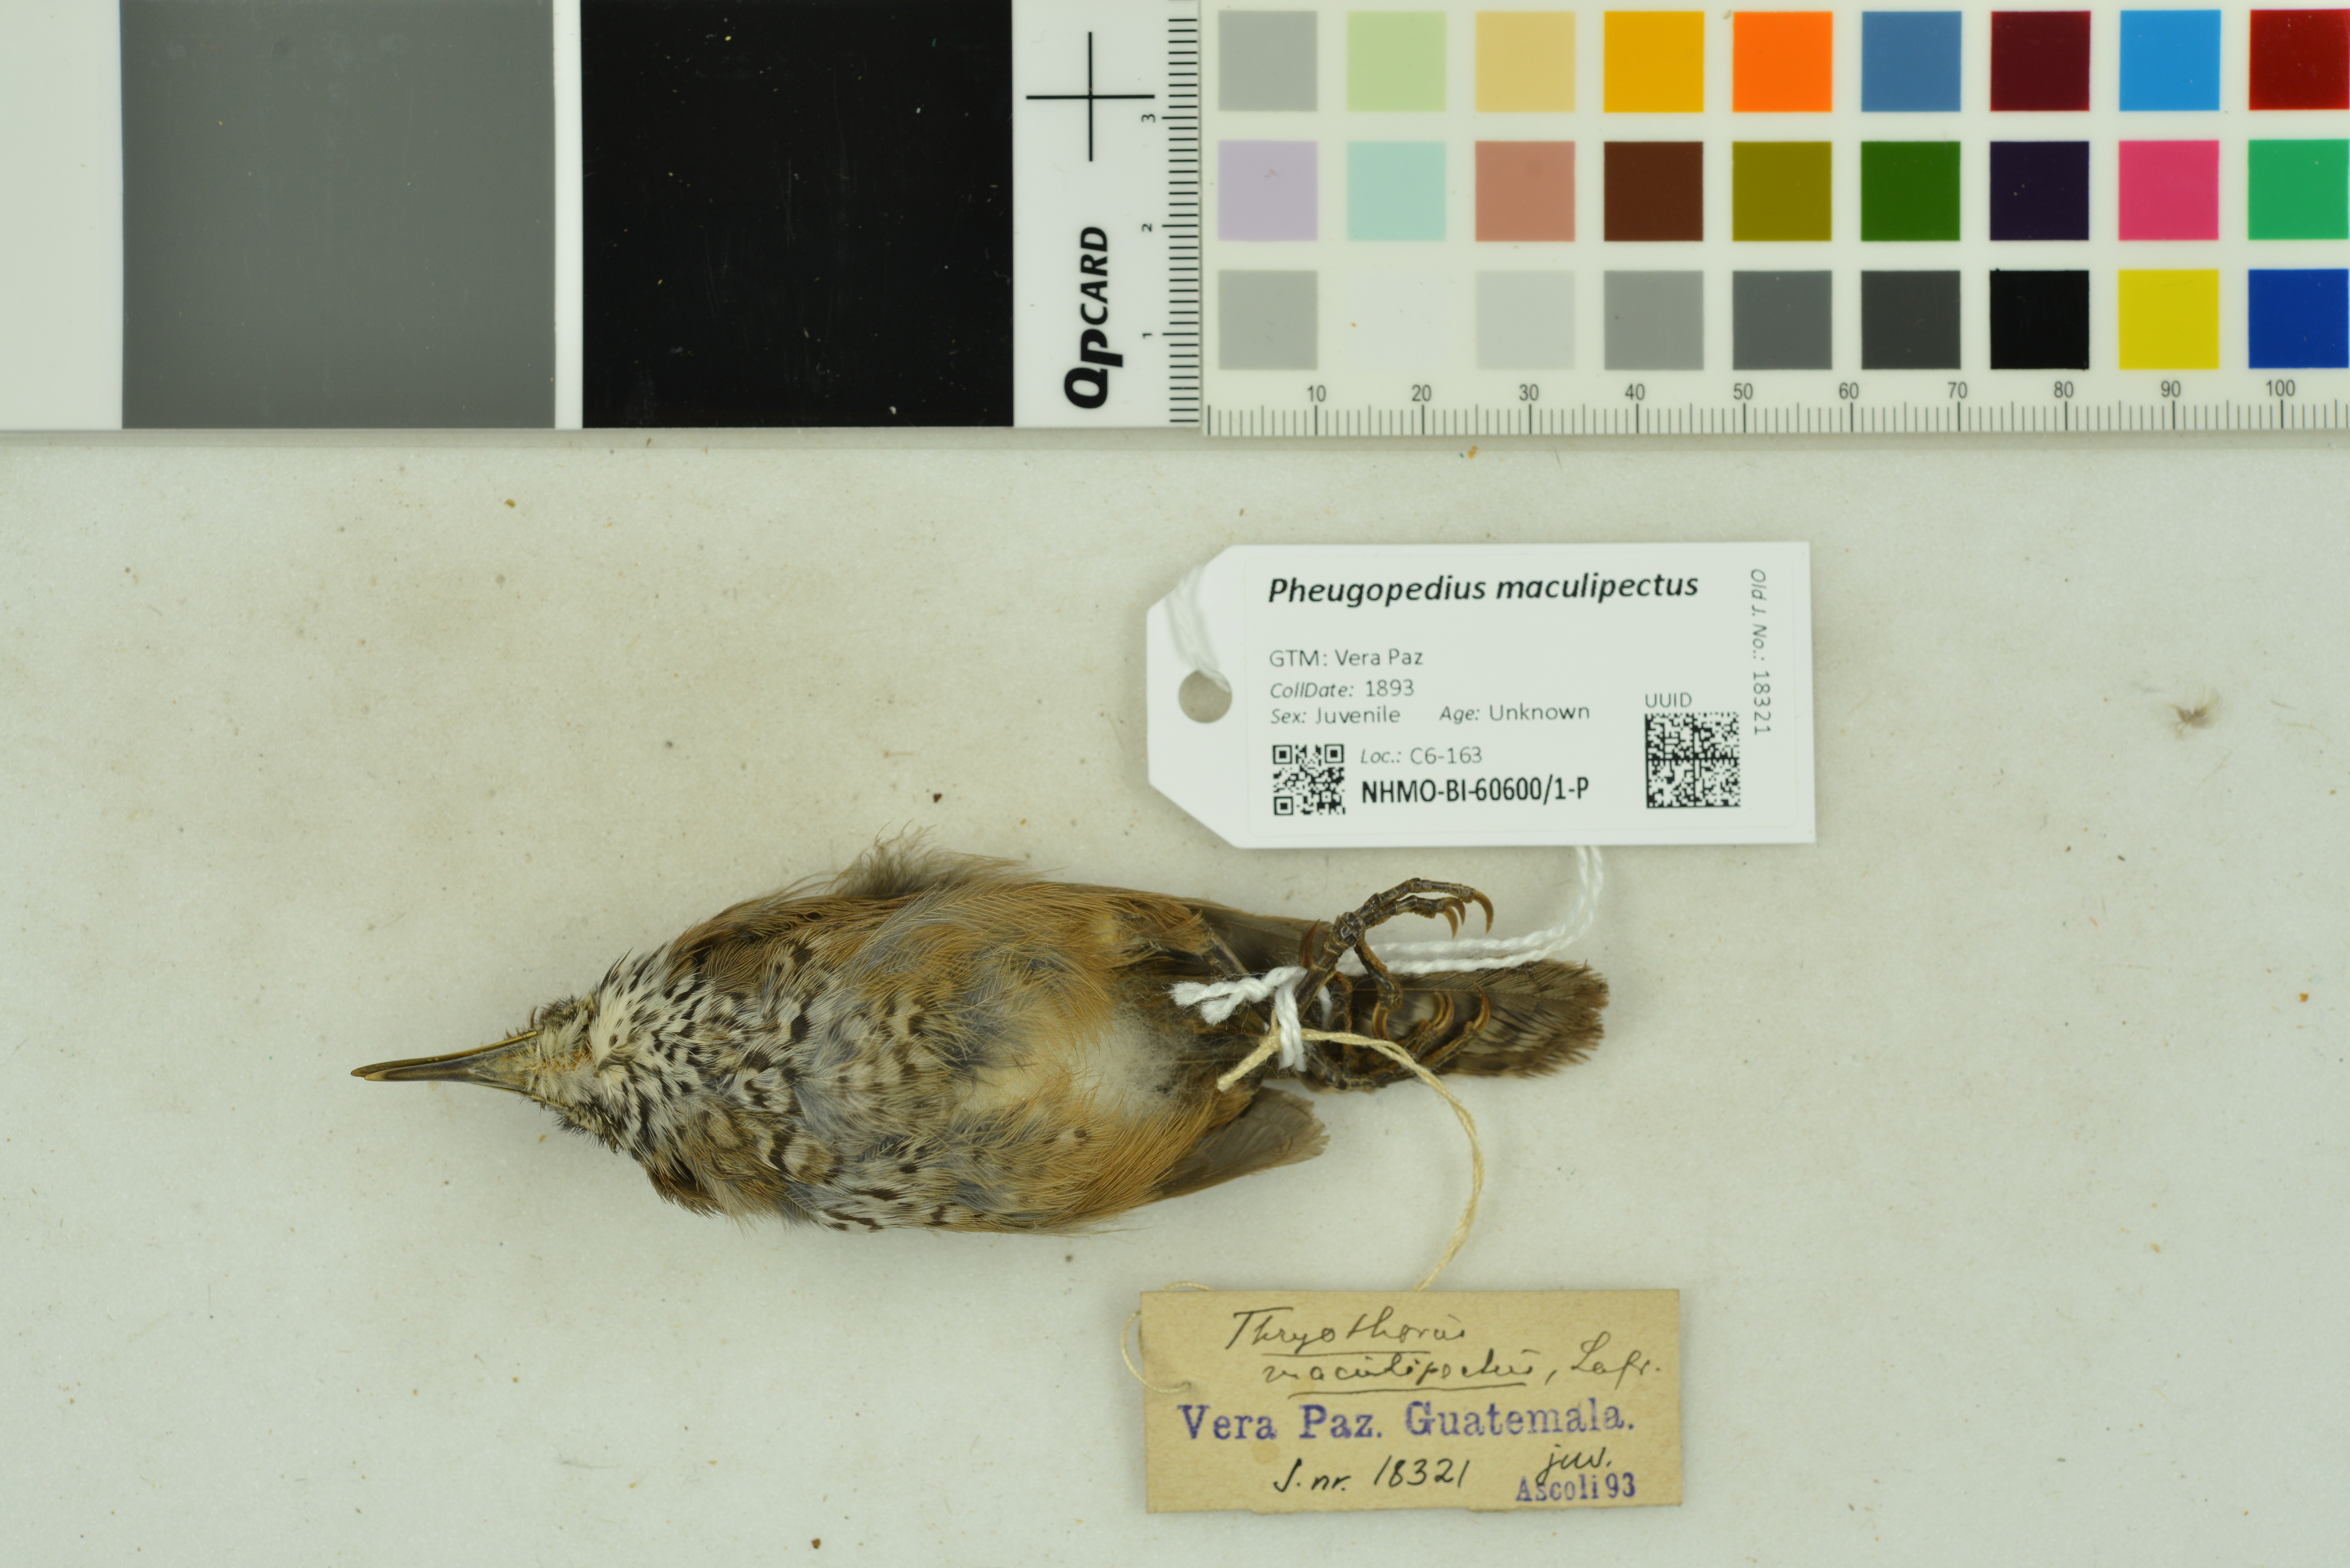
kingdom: Animalia
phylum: Chordata
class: Aves
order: Passeriformes
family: Troglodytidae
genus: Pheugopedius
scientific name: Pheugopedius maculipectus
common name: Spot-breasted wren
